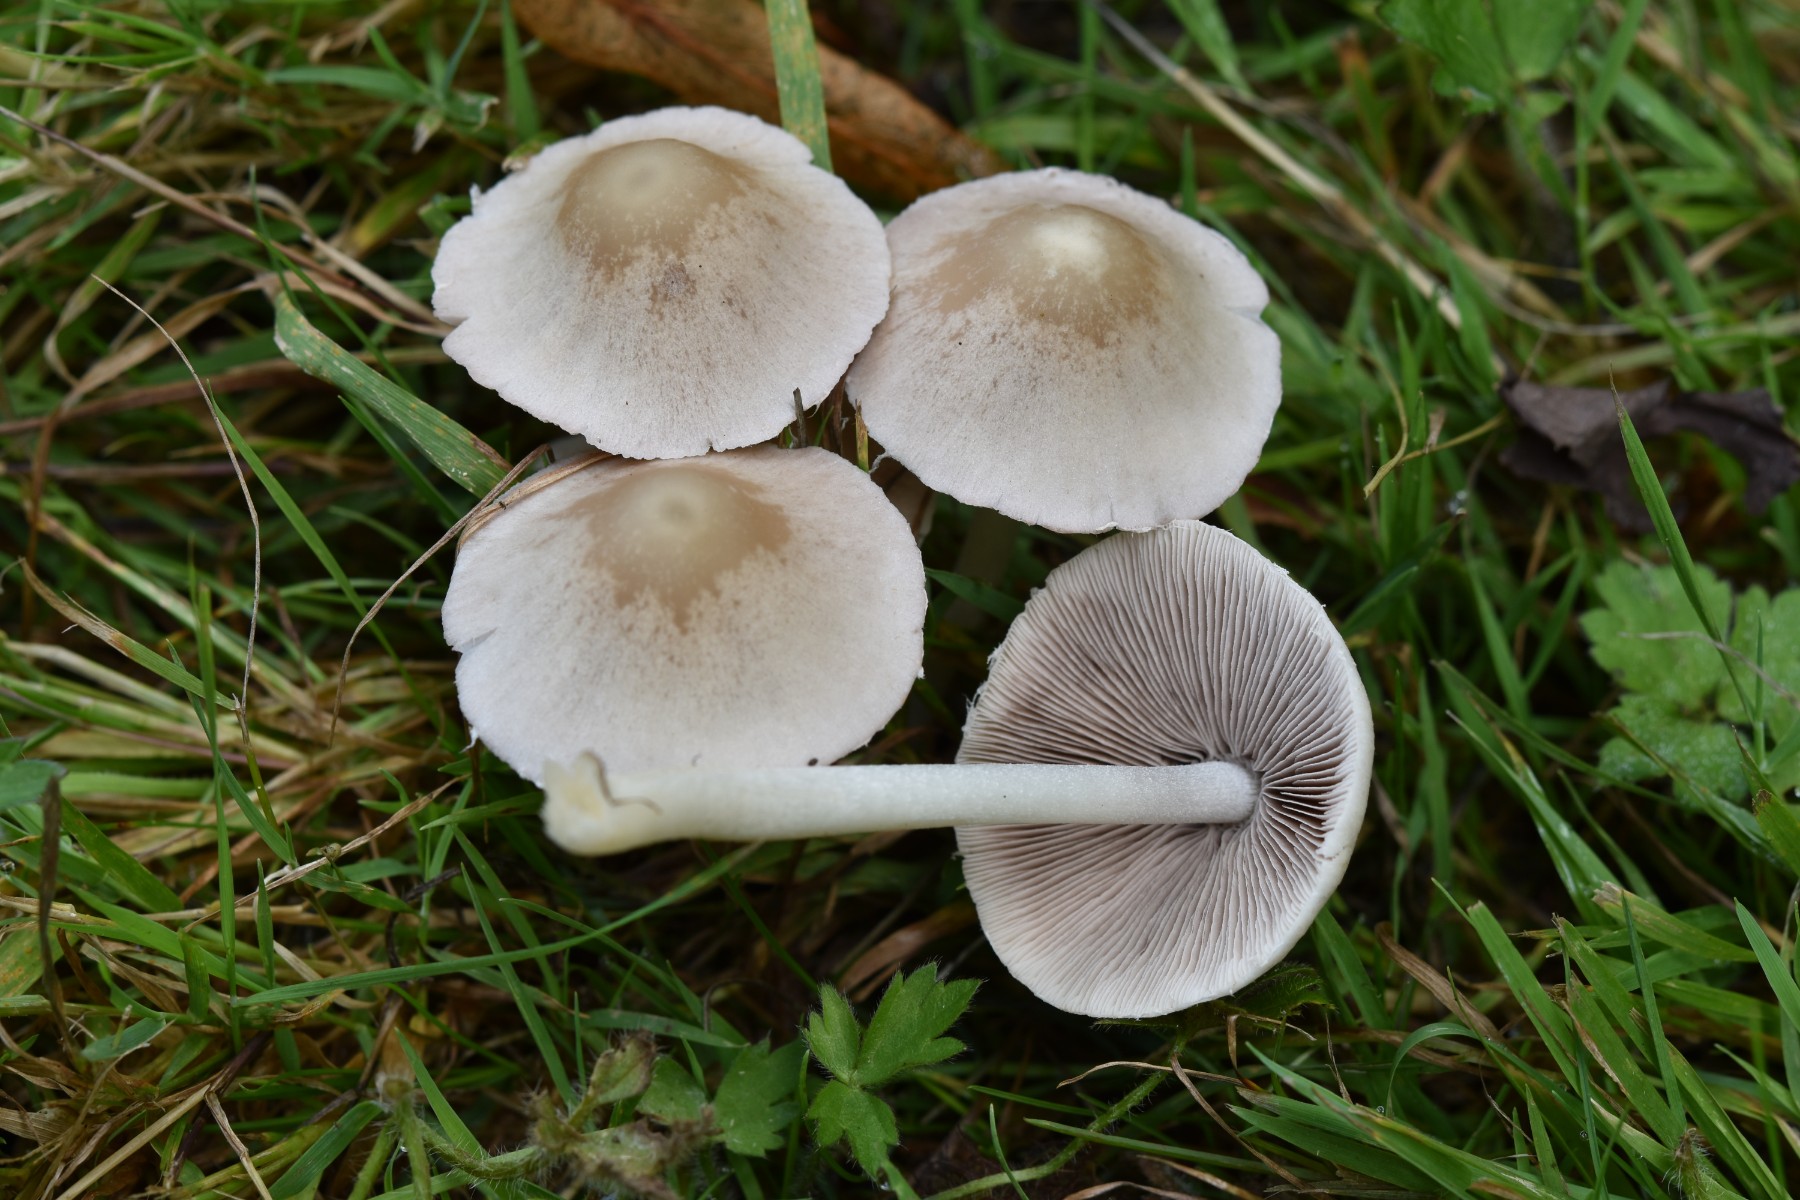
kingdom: Fungi
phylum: Basidiomycota
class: Agaricomycetes
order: Agaricales
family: Psathyrellaceae
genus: Candolleomyces
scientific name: Candolleomyces candolleanus
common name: Candolles mørkhat
